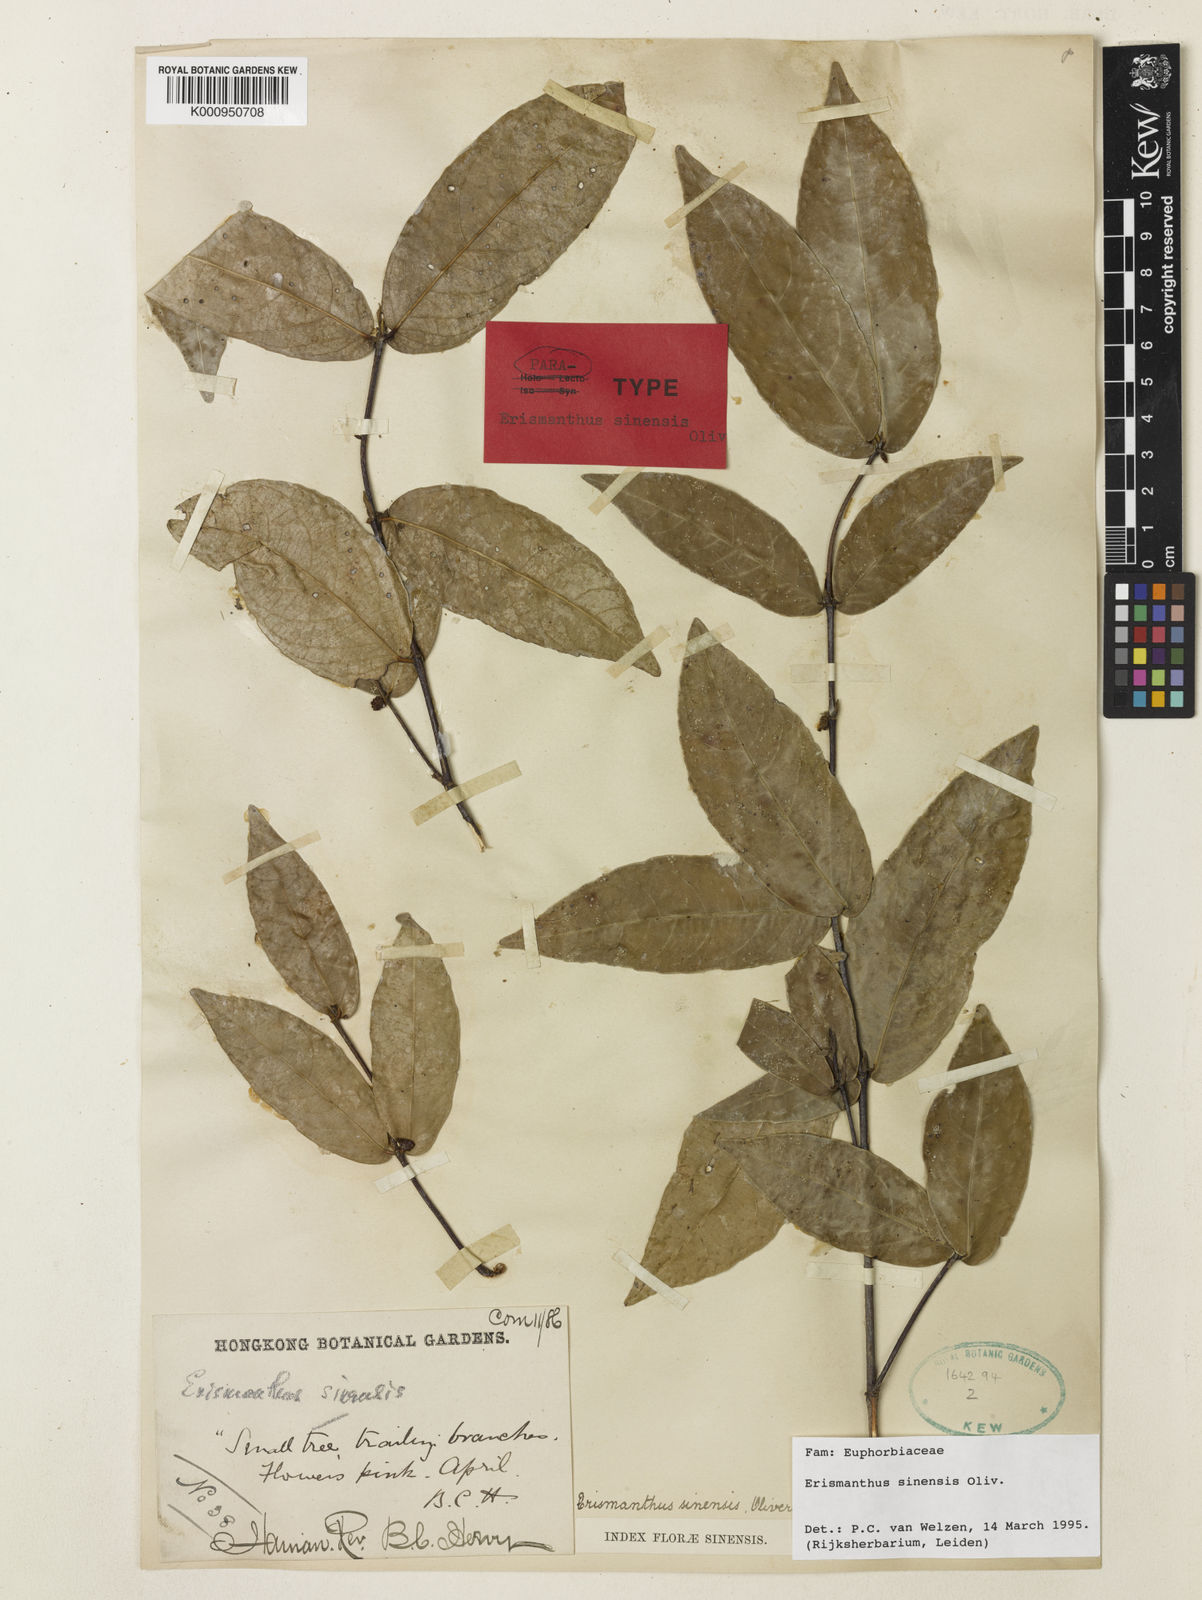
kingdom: Plantae
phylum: Tracheophyta
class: Magnoliopsida
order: Malpighiales
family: Euphorbiaceae
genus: Erismanthus
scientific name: Erismanthus sinensis
